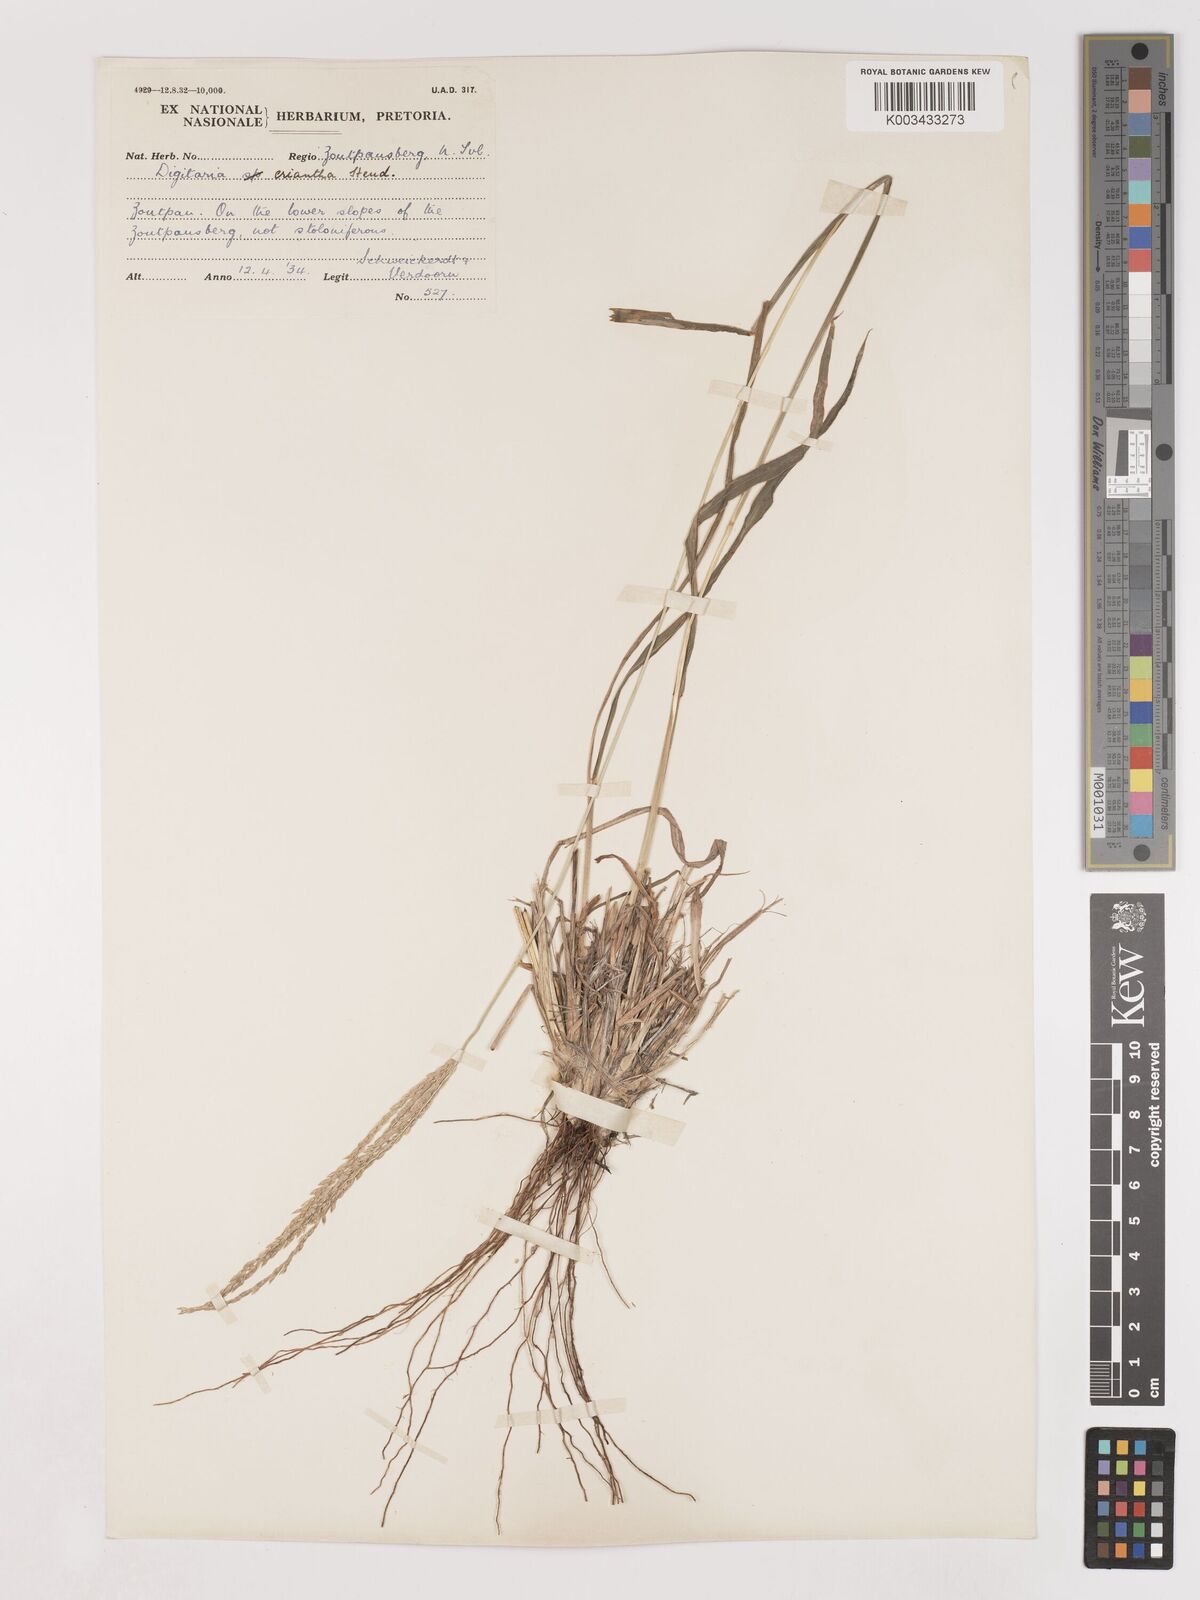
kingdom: Plantae
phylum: Tracheophyta
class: Liliopsida
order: Poales
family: Poaceae
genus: Digitaria
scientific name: Digitaria eriantha
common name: Digitgrass
